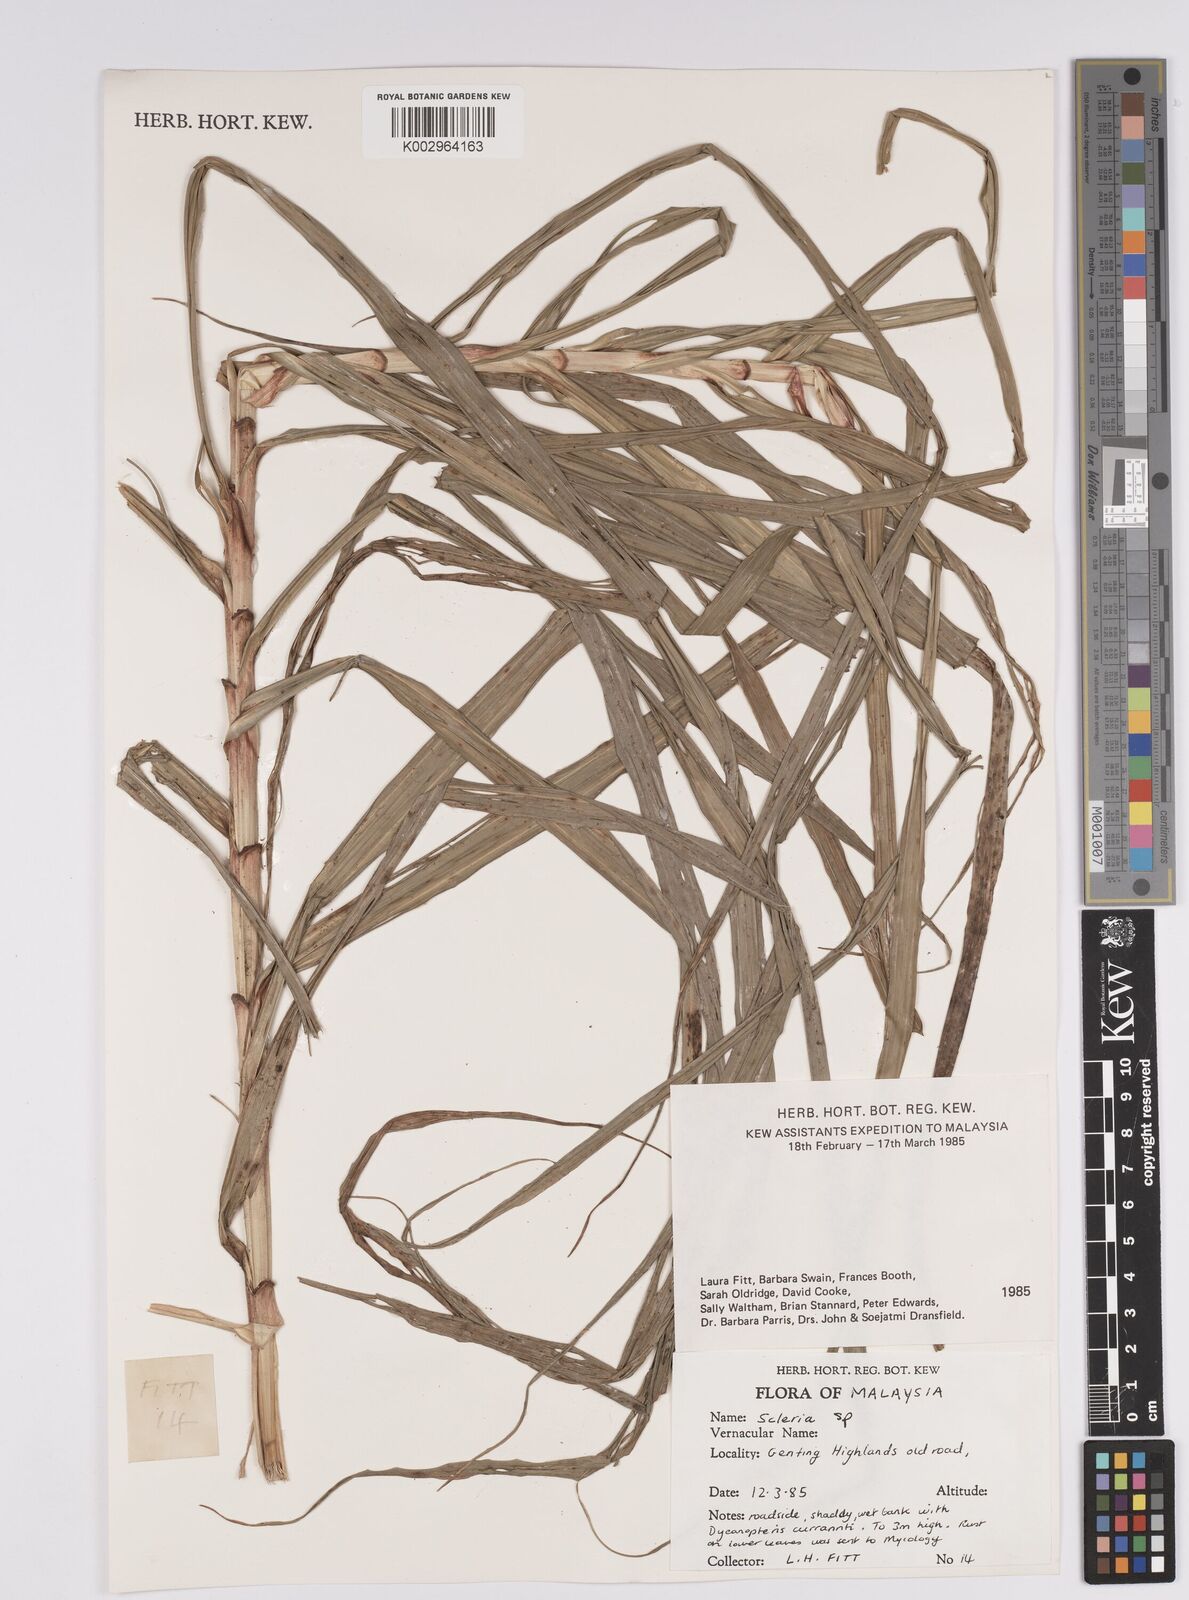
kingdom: Plantae
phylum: Tracheophyta
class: Liliopsida
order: Poales
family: Cyperaceae
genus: Scleria
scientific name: Scleria
